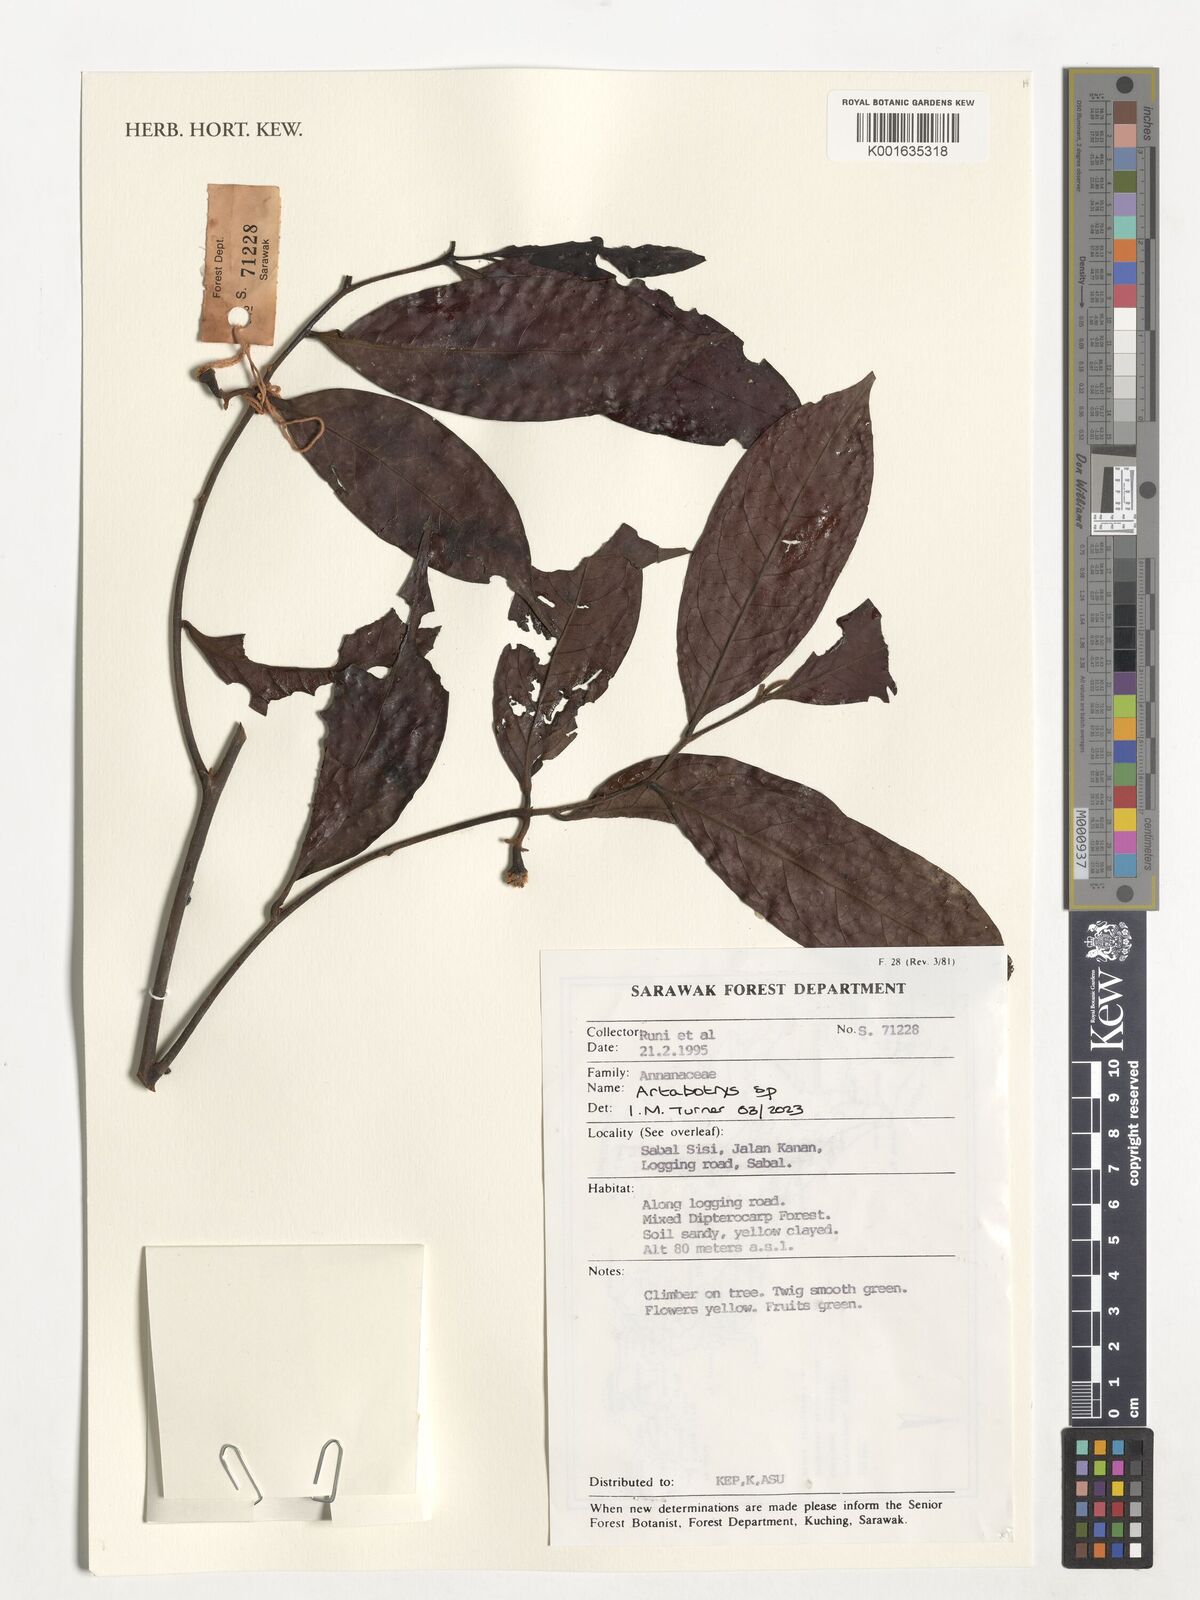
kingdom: Plantae
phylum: Tracheophyta
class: Magnoliopsida
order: Magnoliales
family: Annonaceae
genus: Artabotrys
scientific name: Artabotrys
